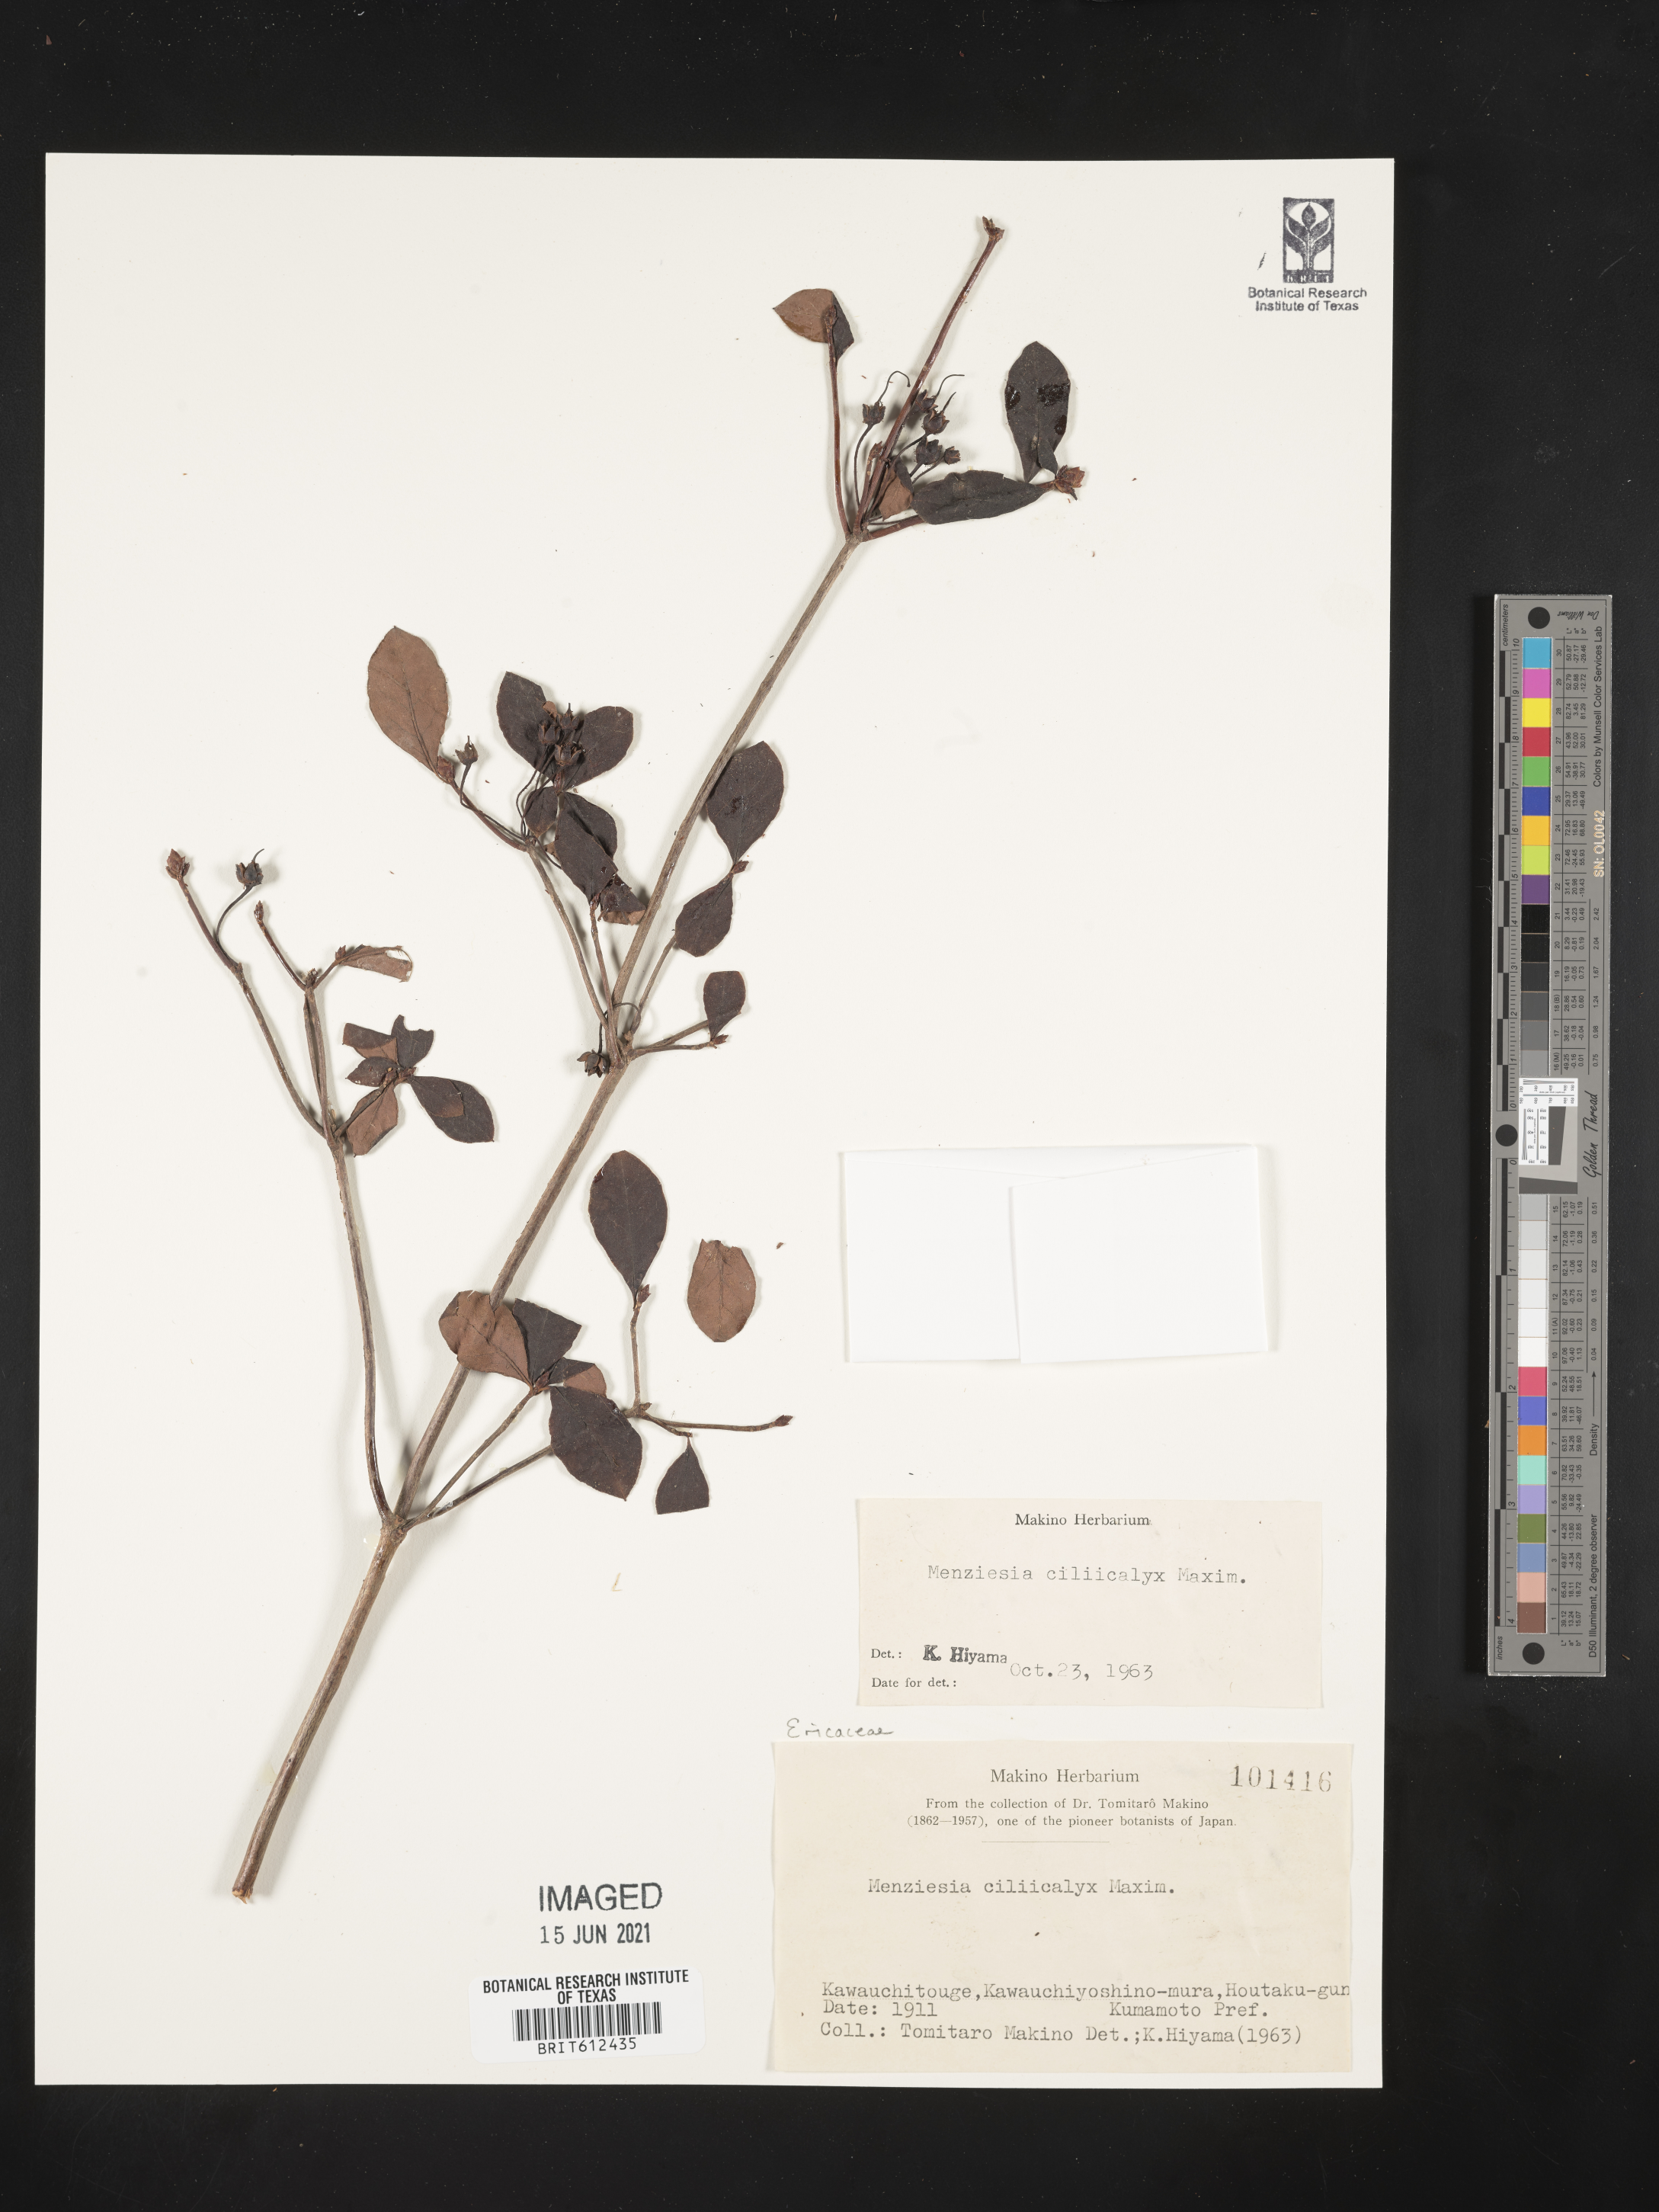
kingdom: Plantae
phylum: Tracheophyta
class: Magnoliopsida
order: Ericales
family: Ericaceae
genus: Rhododendron
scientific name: Rhododendron benhallii
